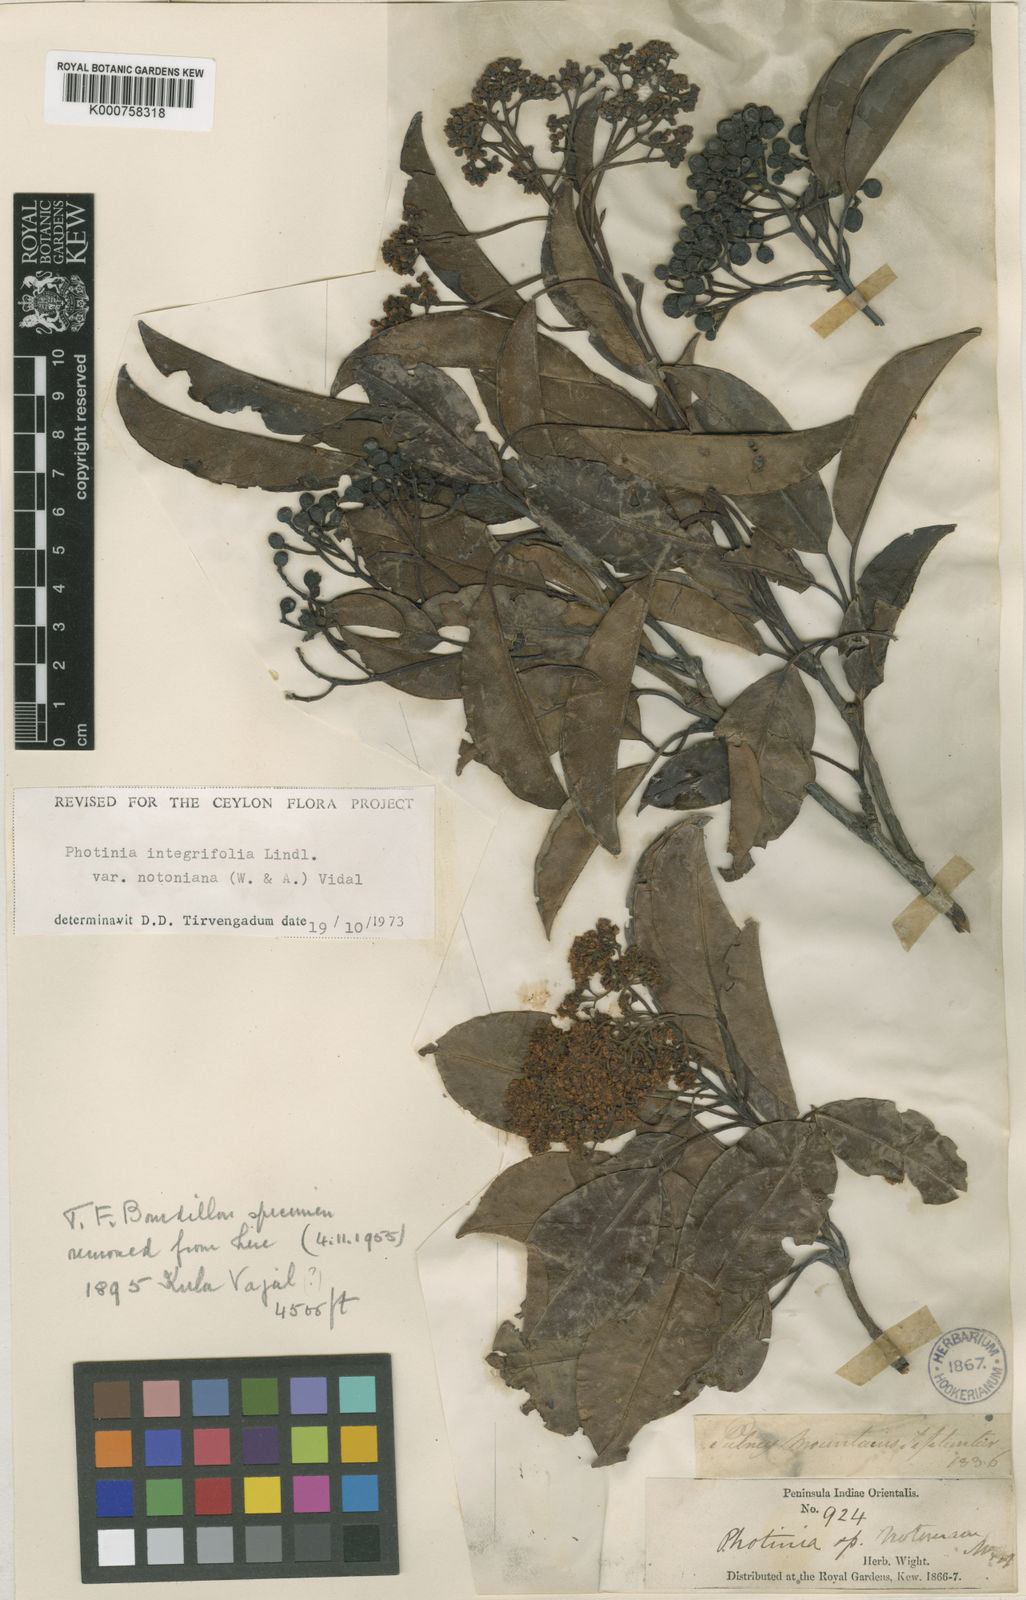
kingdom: Plantae
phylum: Tracheophyta
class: Magnoliopsida
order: Rosales
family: Rosaceae
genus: Photinia
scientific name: Photinia integrifolia
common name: Himalayan chokeberry
